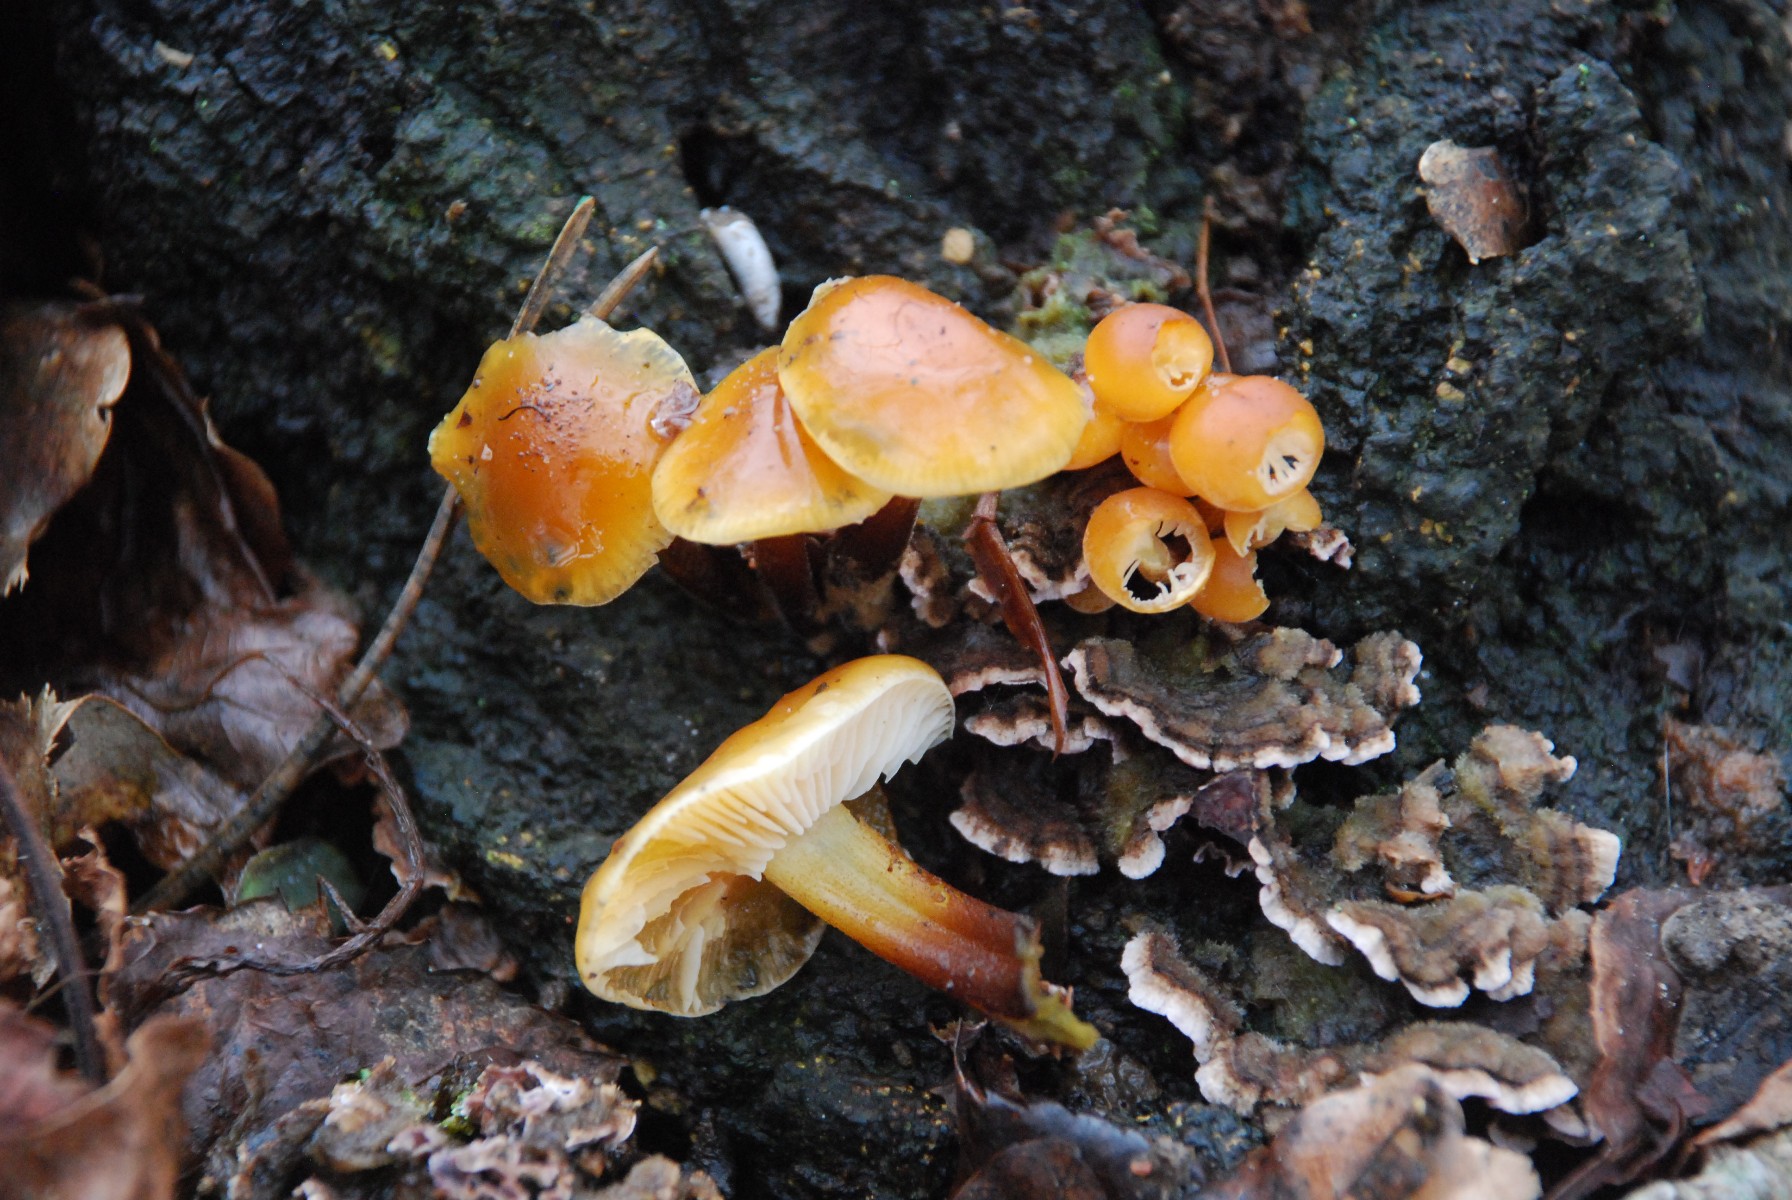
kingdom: Fungi
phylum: Basidiomycota
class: Agaricomycetes
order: Agaricales
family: Physalacriaceae
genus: Flammulina
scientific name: Flammulina velutipes
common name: gul fløjlsfod
